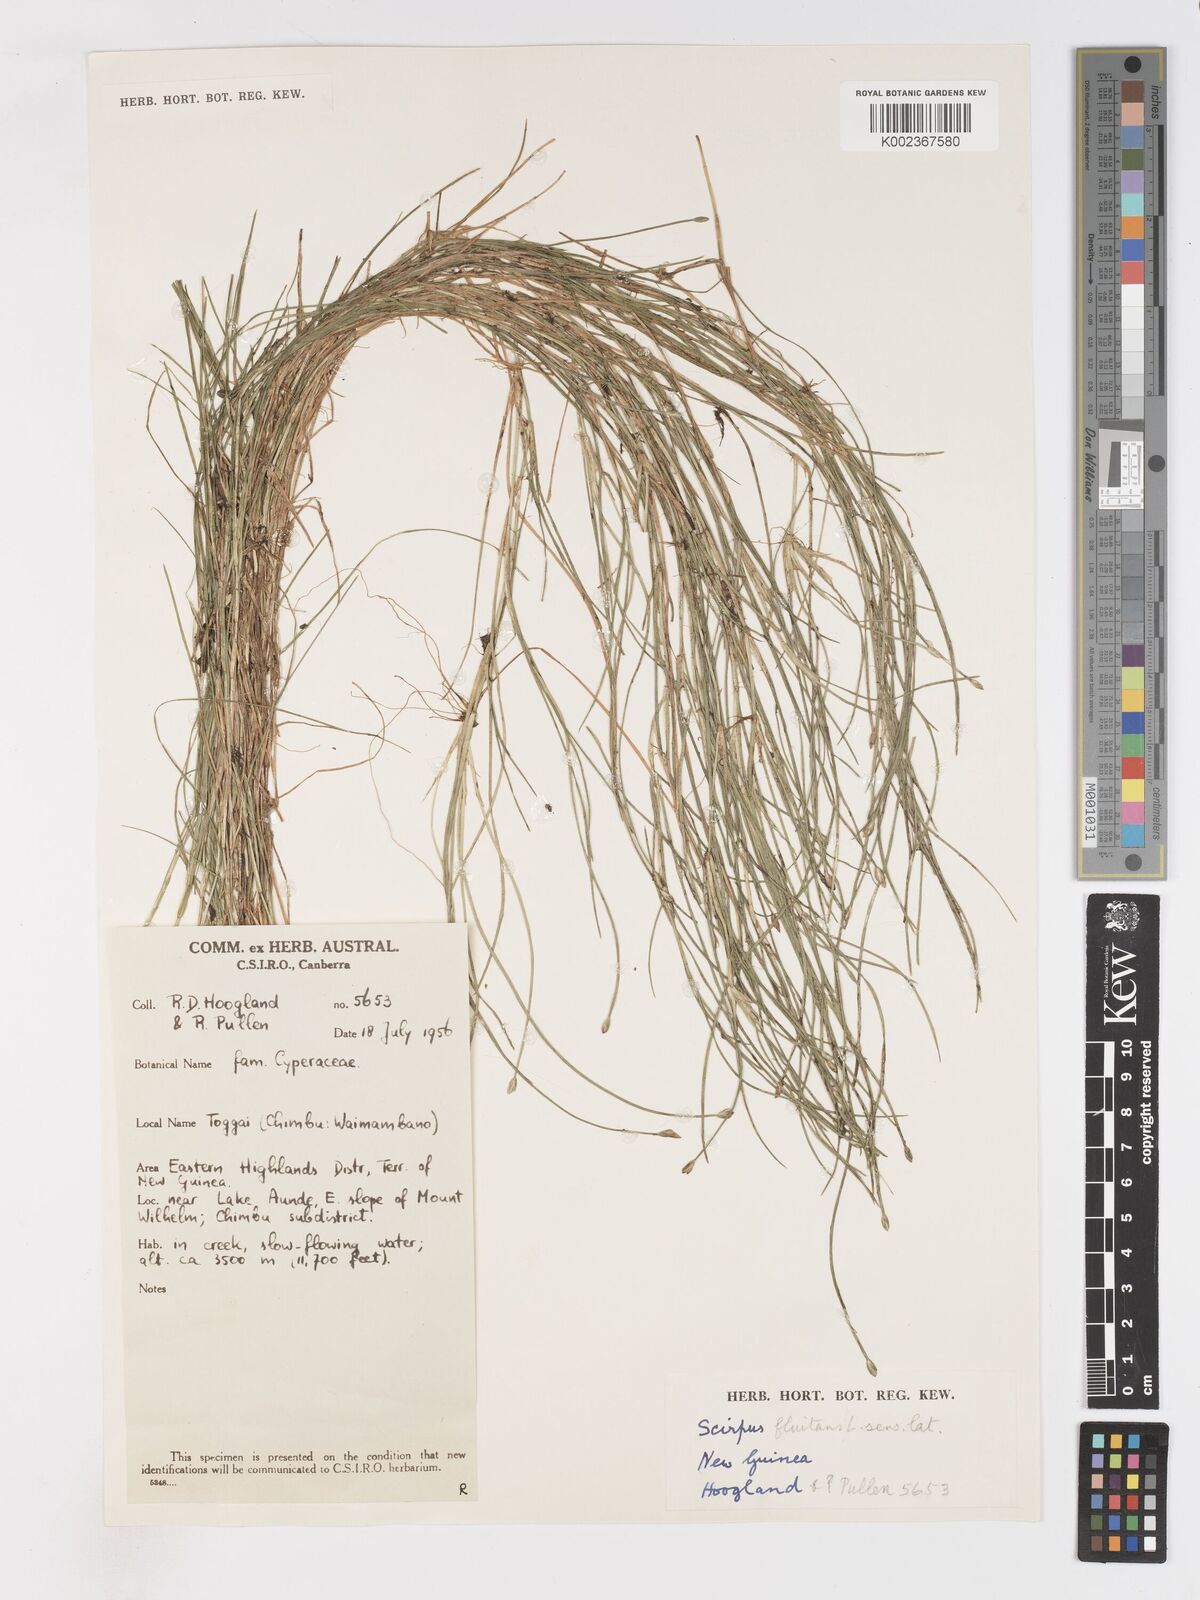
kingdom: Plantae
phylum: Tracheophyta
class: Liliopsida
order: Poales
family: Cyperaceae
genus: Isolepis
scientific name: Isolepis fluitans
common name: Floating club-rush
